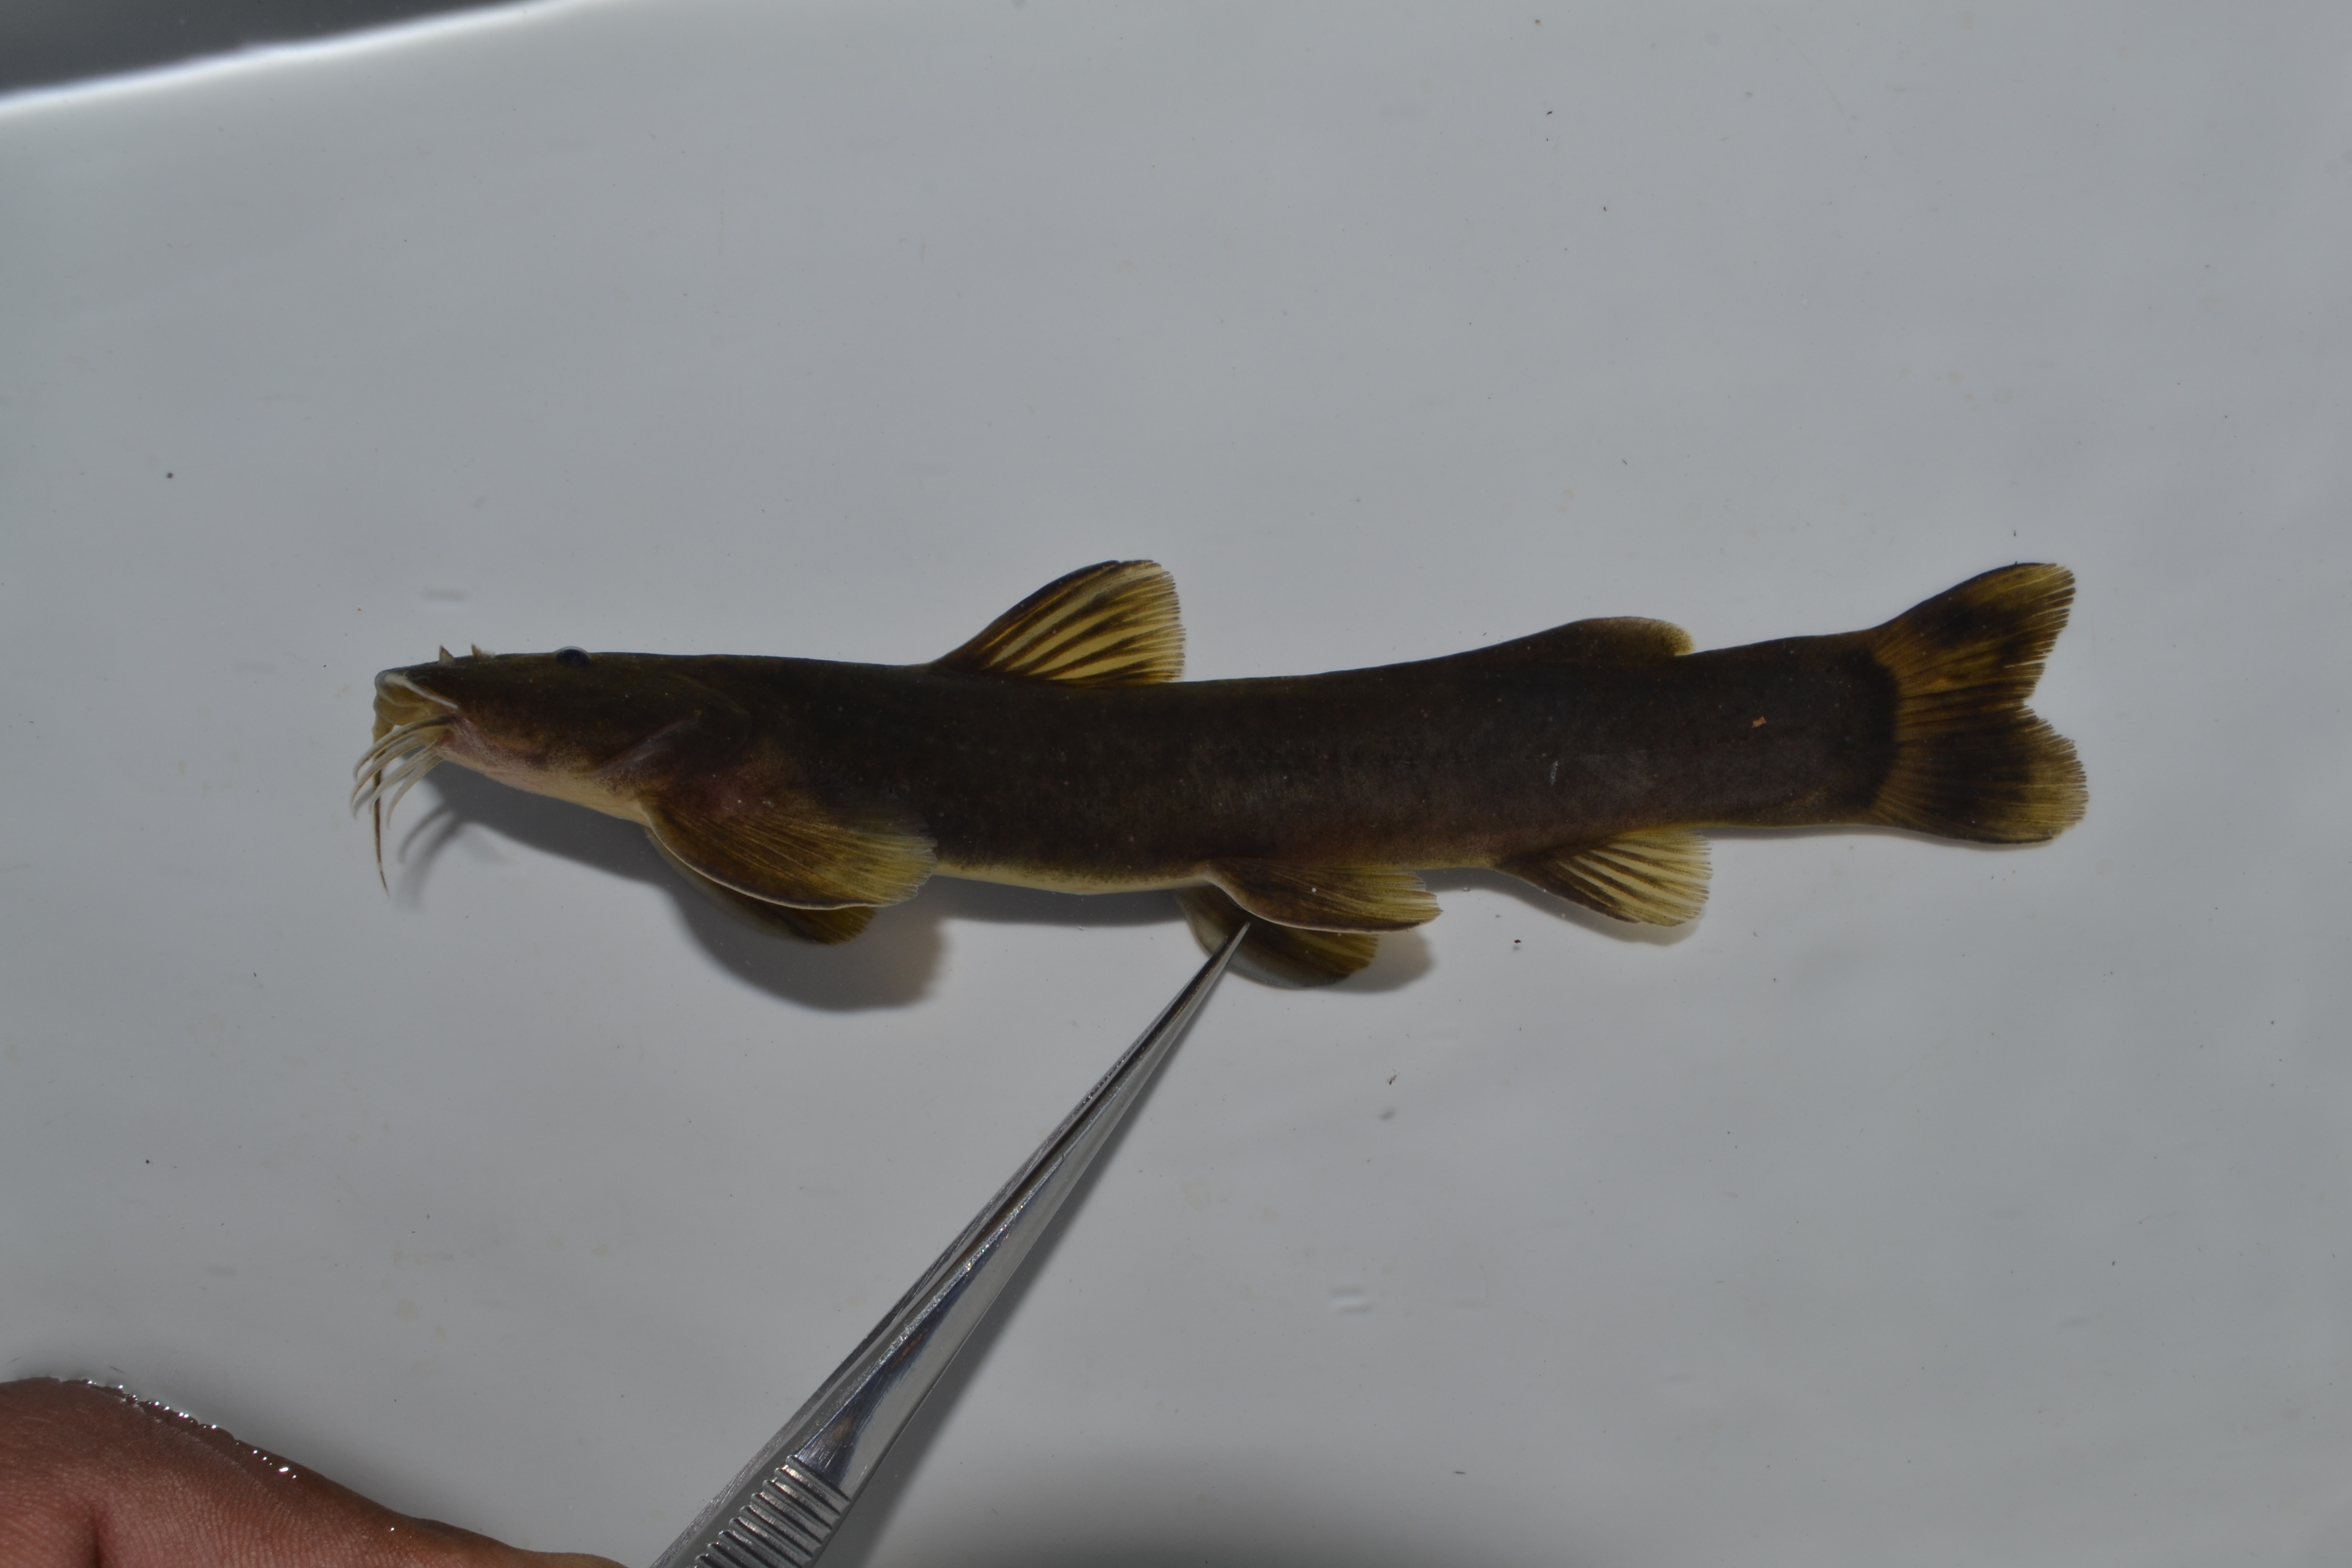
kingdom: Animalia
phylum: Chordata
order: Siluriformes
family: Amphiliidae
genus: Amphilius
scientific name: Amphilius uranoscopus
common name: Stargazer mountain catfish
